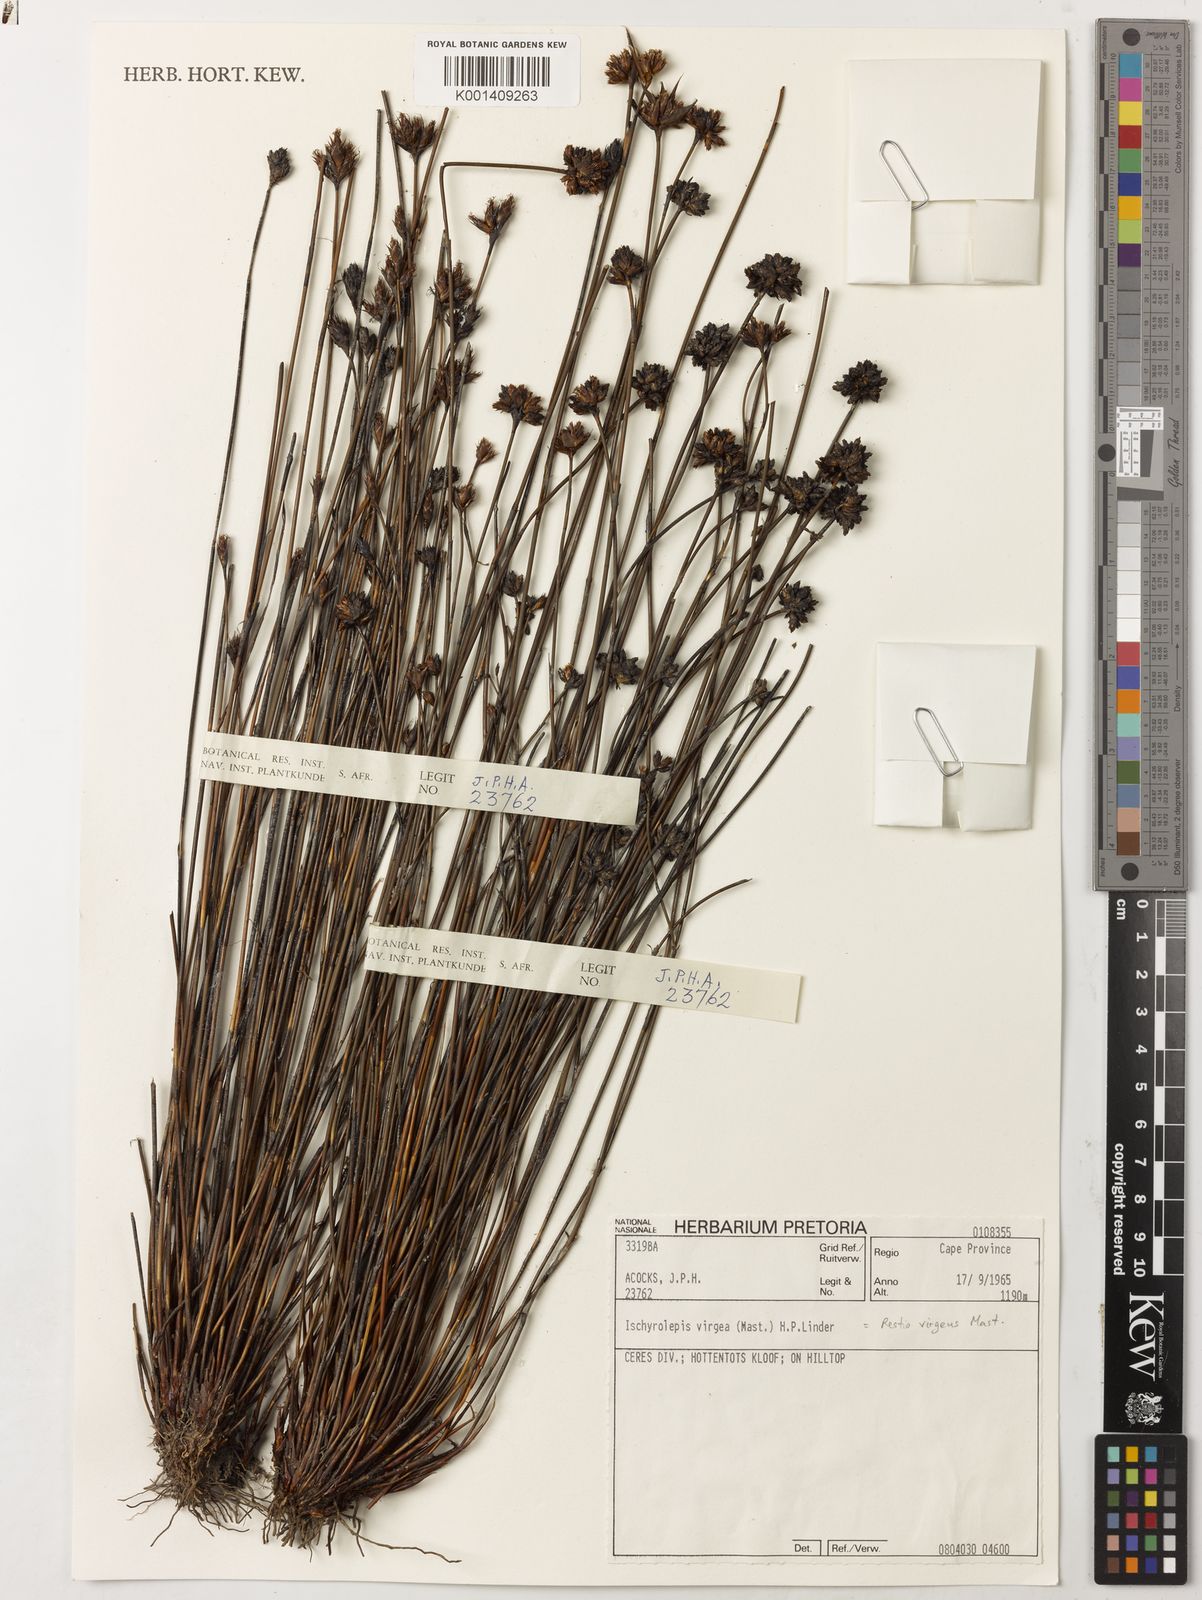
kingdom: Plantae
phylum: Tracheophyta
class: Liliopsida
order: Poales
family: Restionaceae
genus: Restio
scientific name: Restio virgeus
